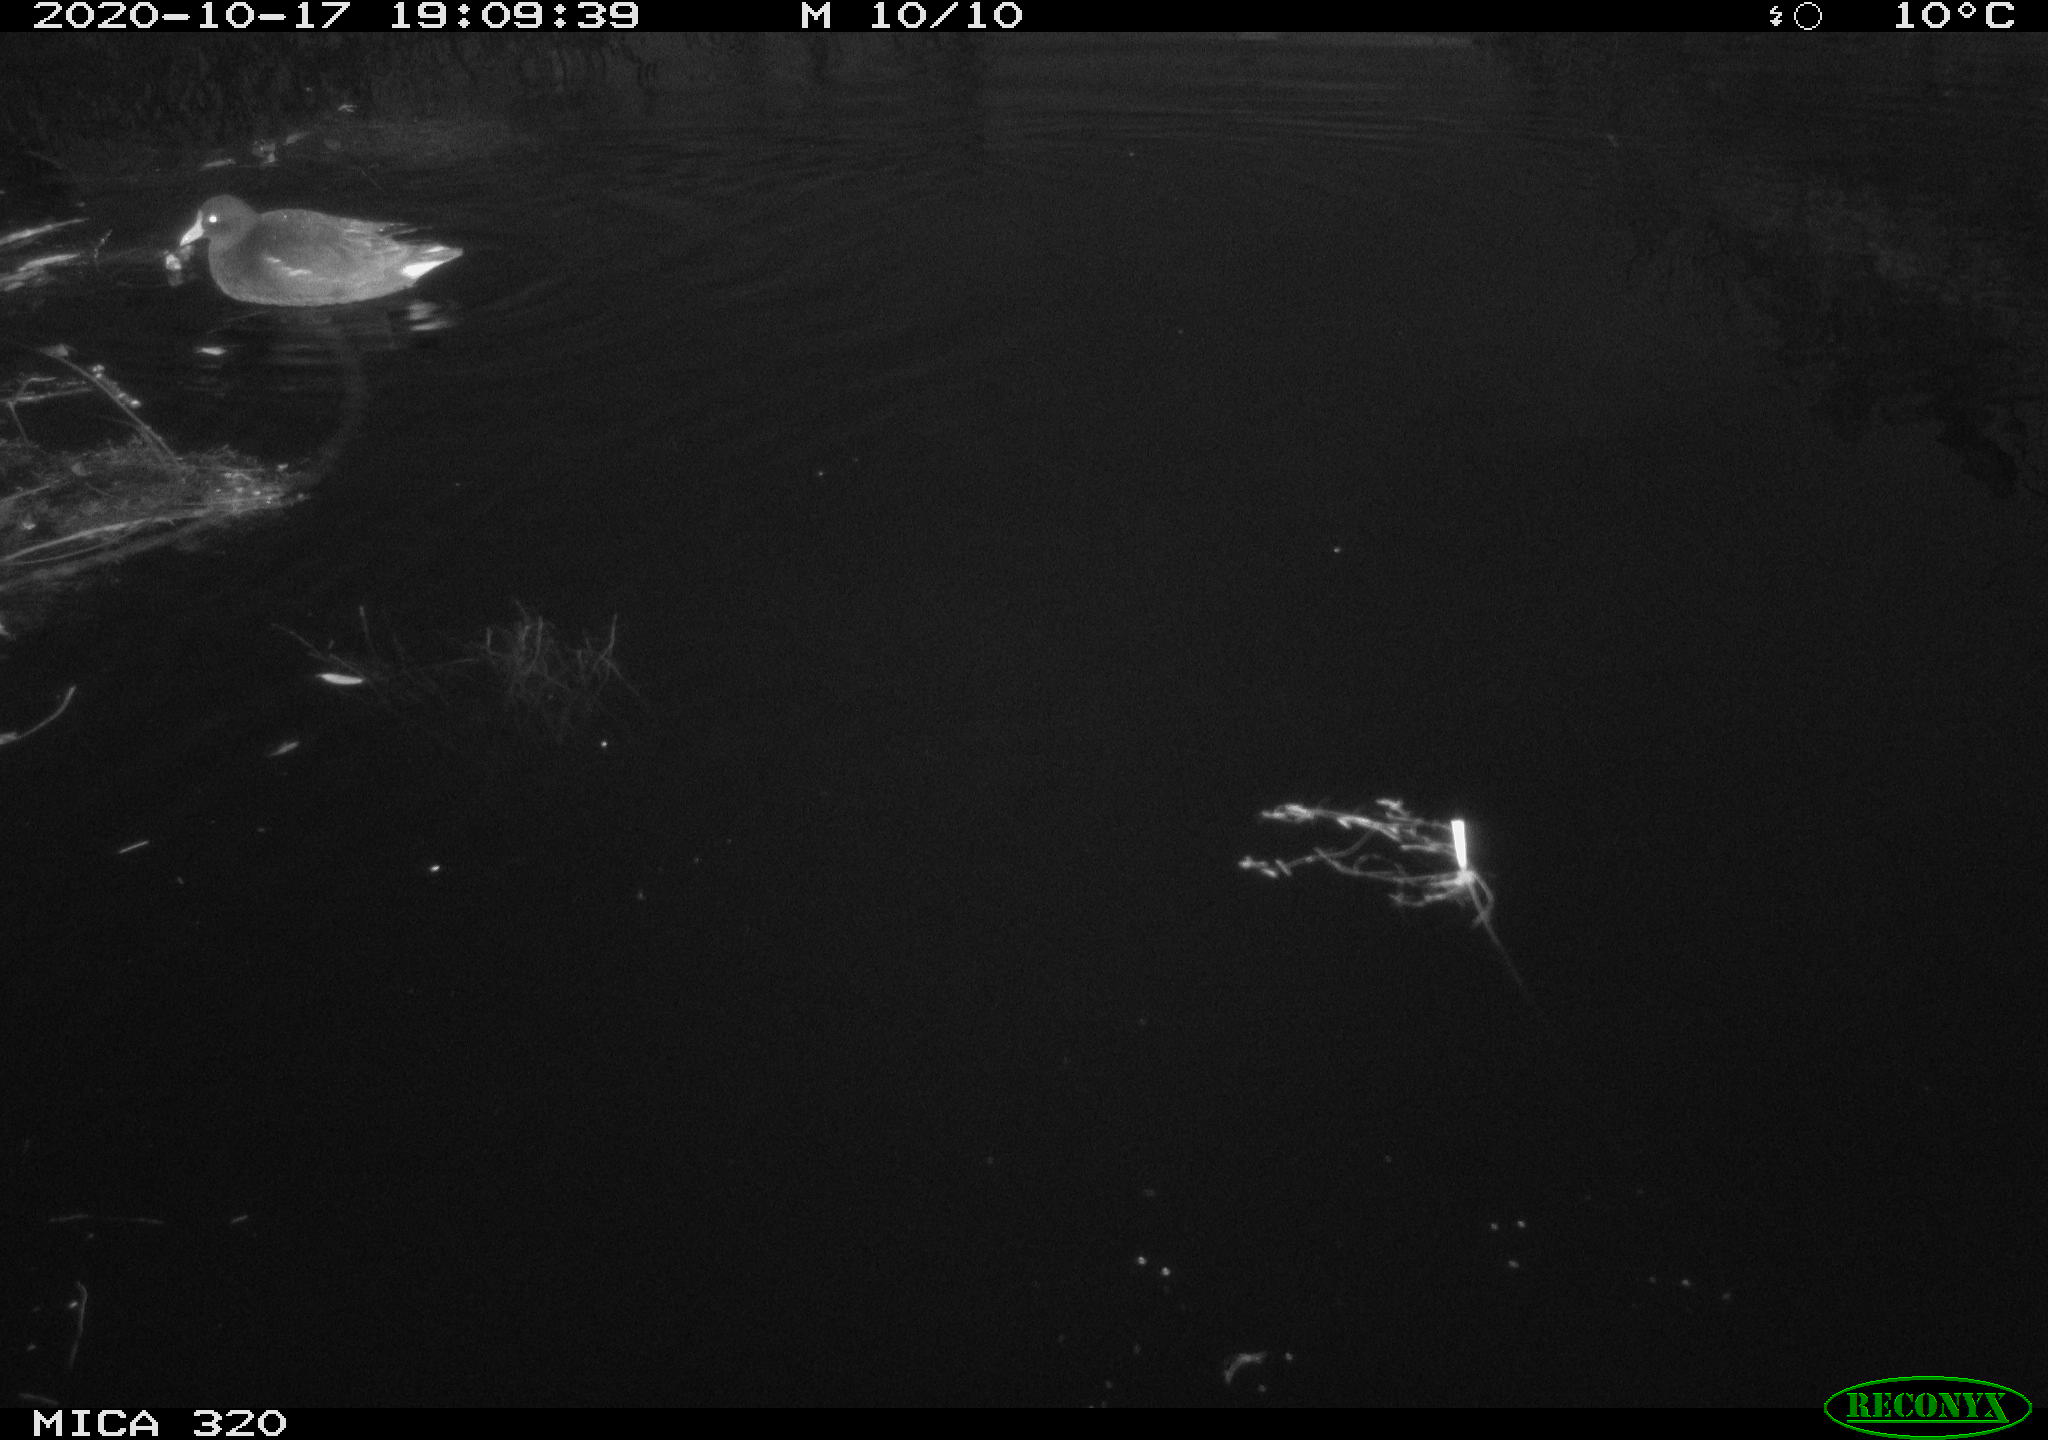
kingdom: Animalia
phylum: Chordata
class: Aves
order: Gruiformes
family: Rallidae
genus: Gallinula
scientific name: Gallinula chloropus
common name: Common moorhen
